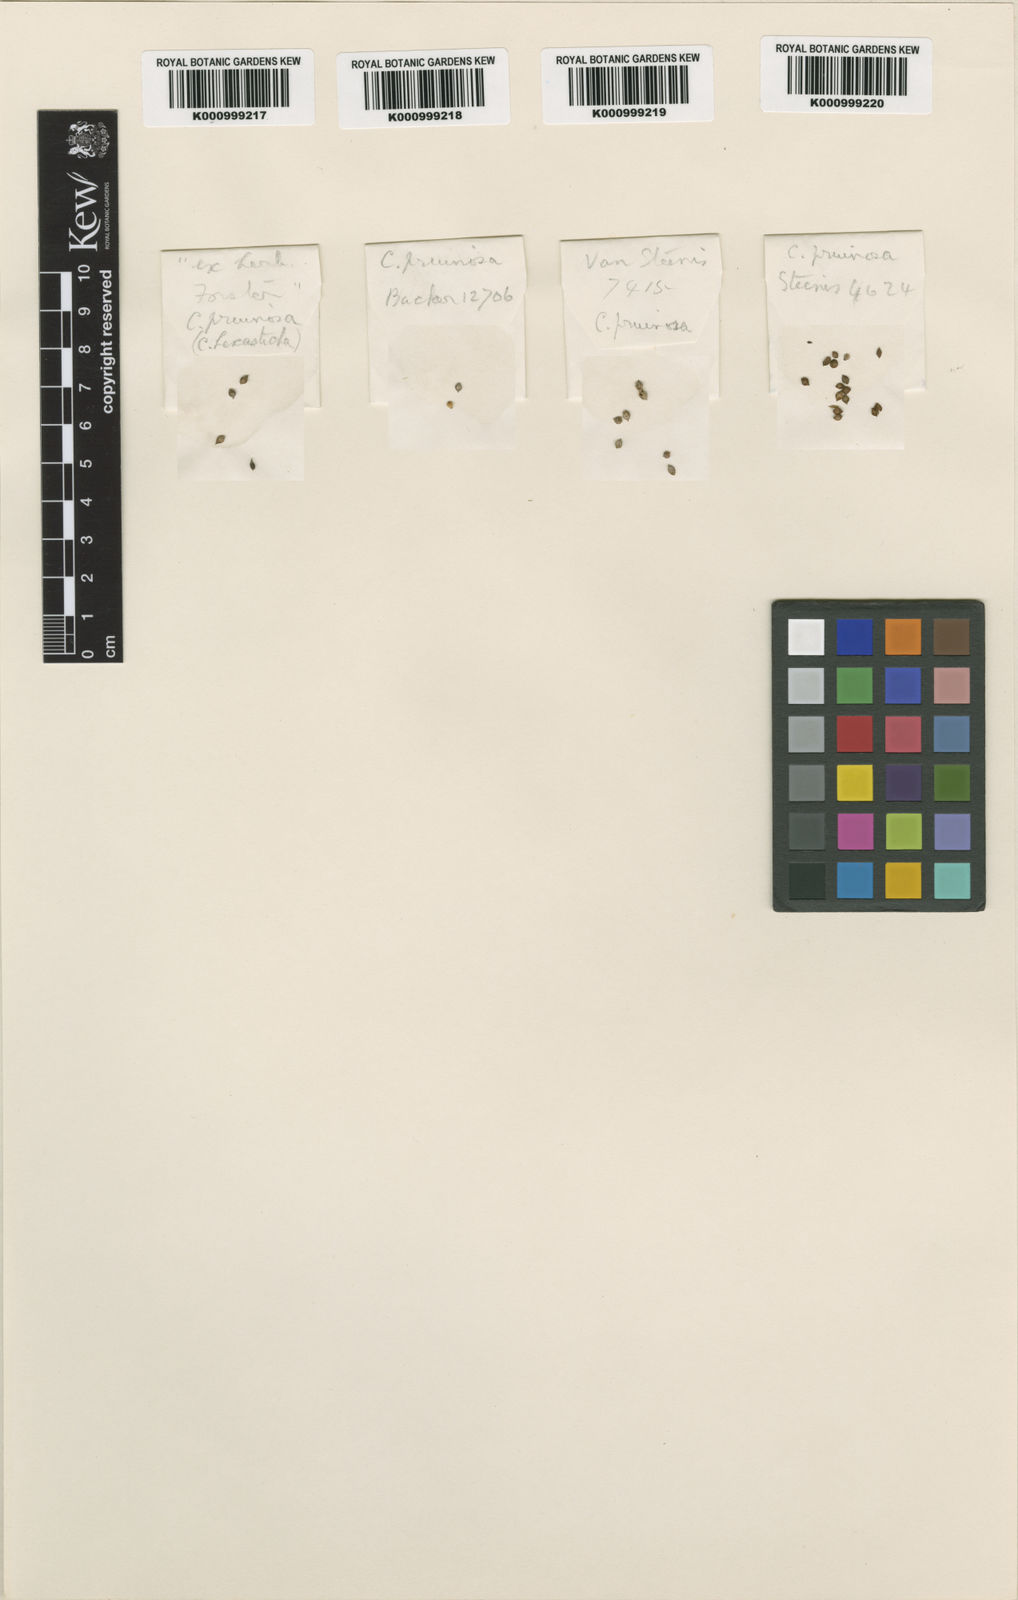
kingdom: Plantae
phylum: Tracheophyta
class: Liliopsida
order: Poales
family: Cyperaceae
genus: Carex
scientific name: Carex pruinosa
